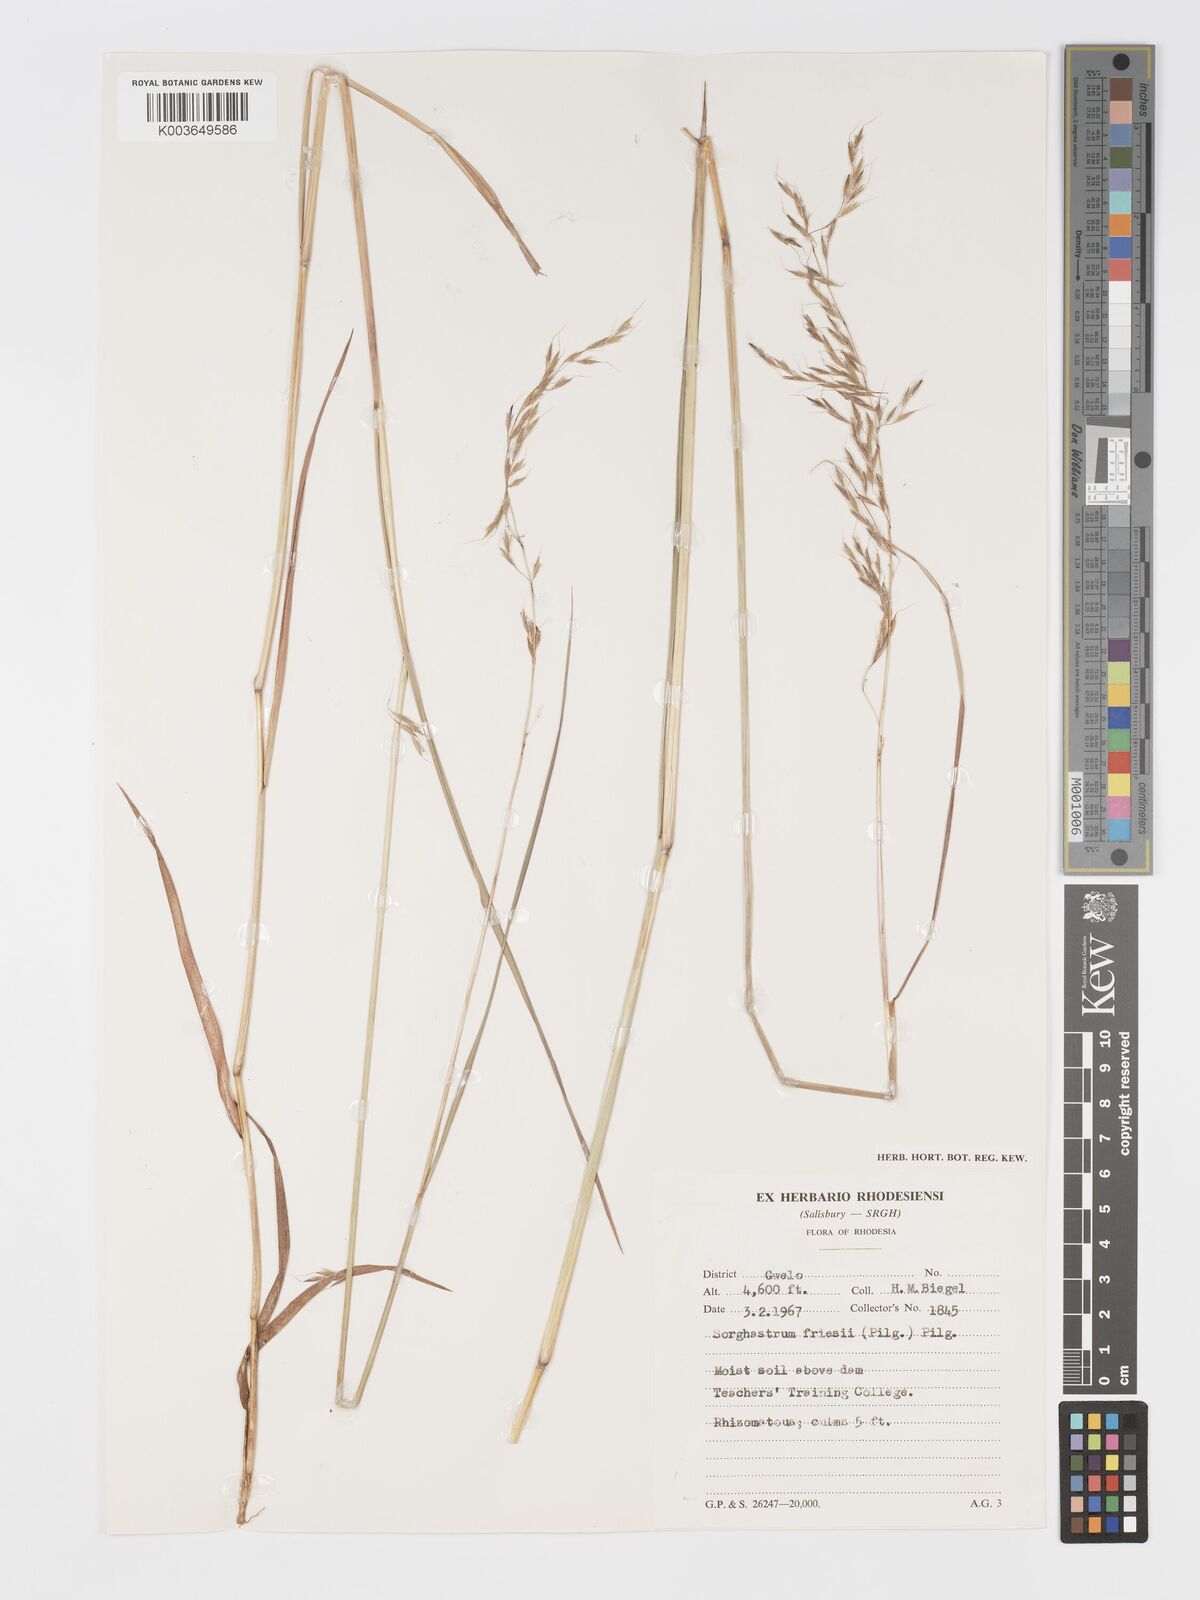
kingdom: Plantae
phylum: Tracheophyta
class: Liliopsida
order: Poales
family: Poaceae
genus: Sorghastrum
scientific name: Sorghastrum nudipes
